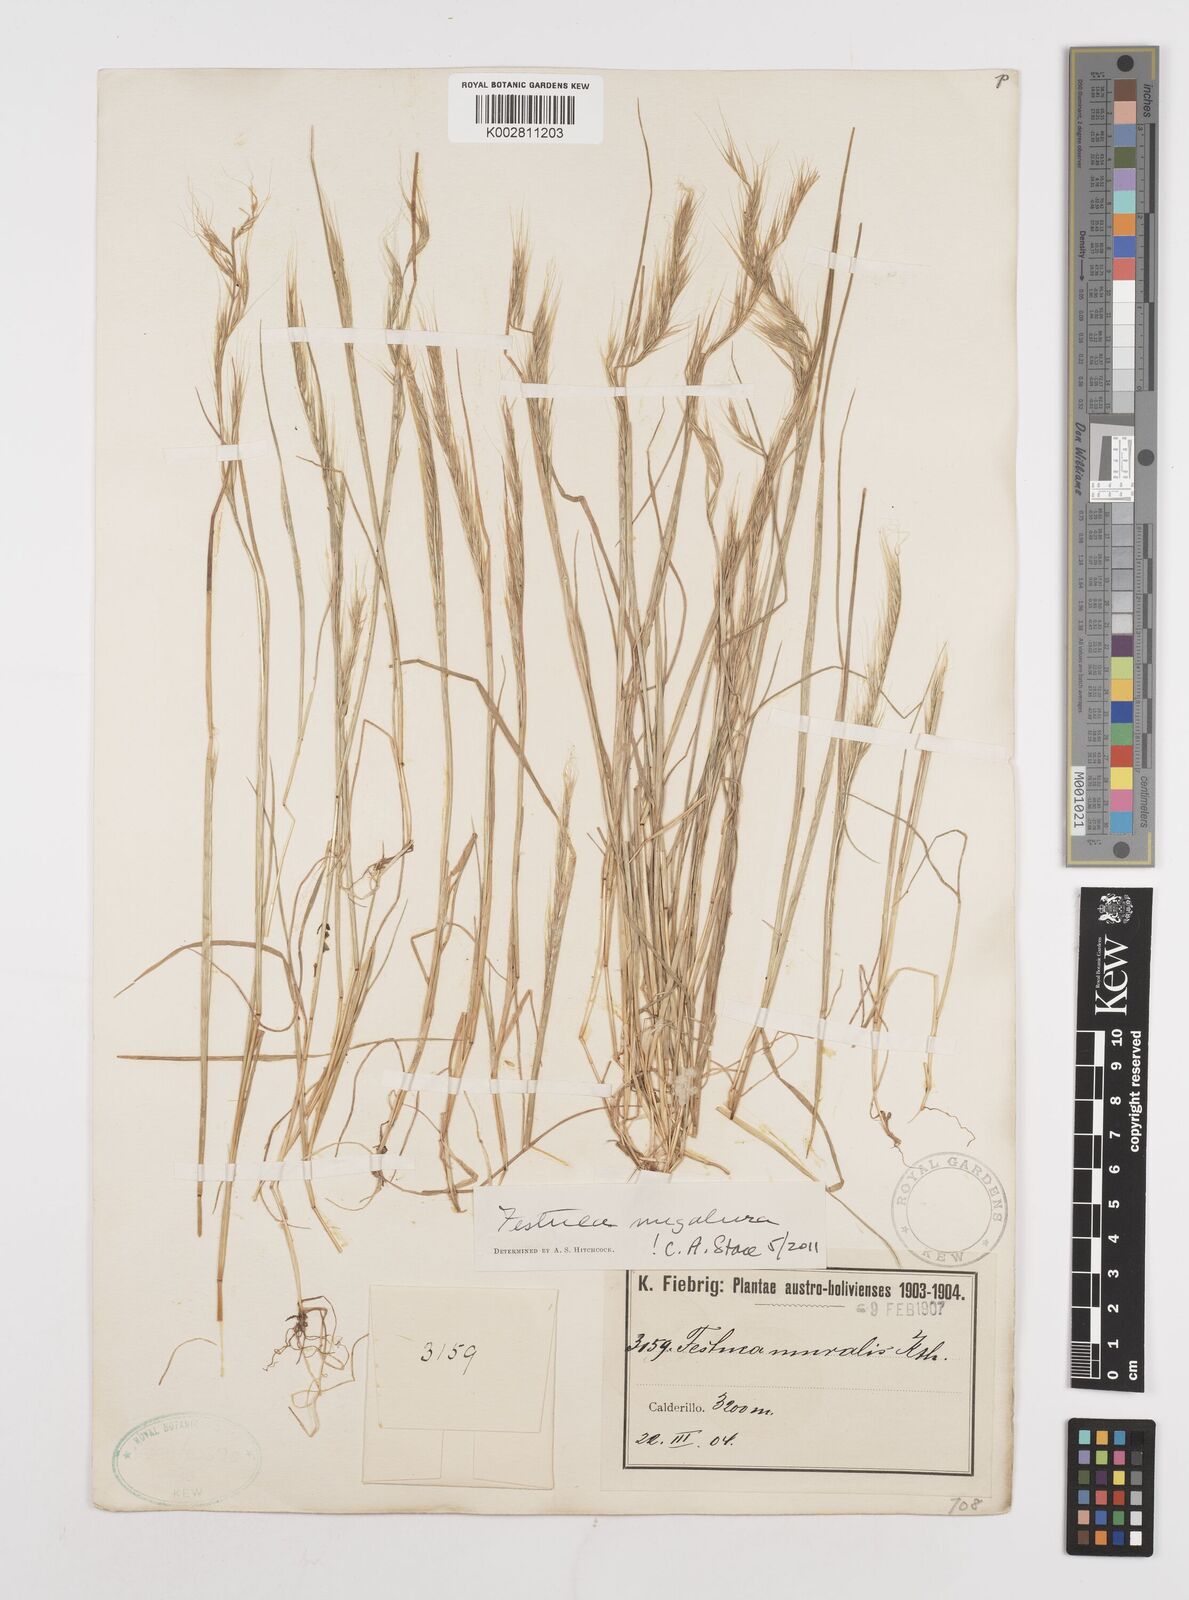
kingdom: Plantae
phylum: Tracheophyta
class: Liliopsida
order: Poales
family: Poaceae
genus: Festuca
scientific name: Festuca myuros
